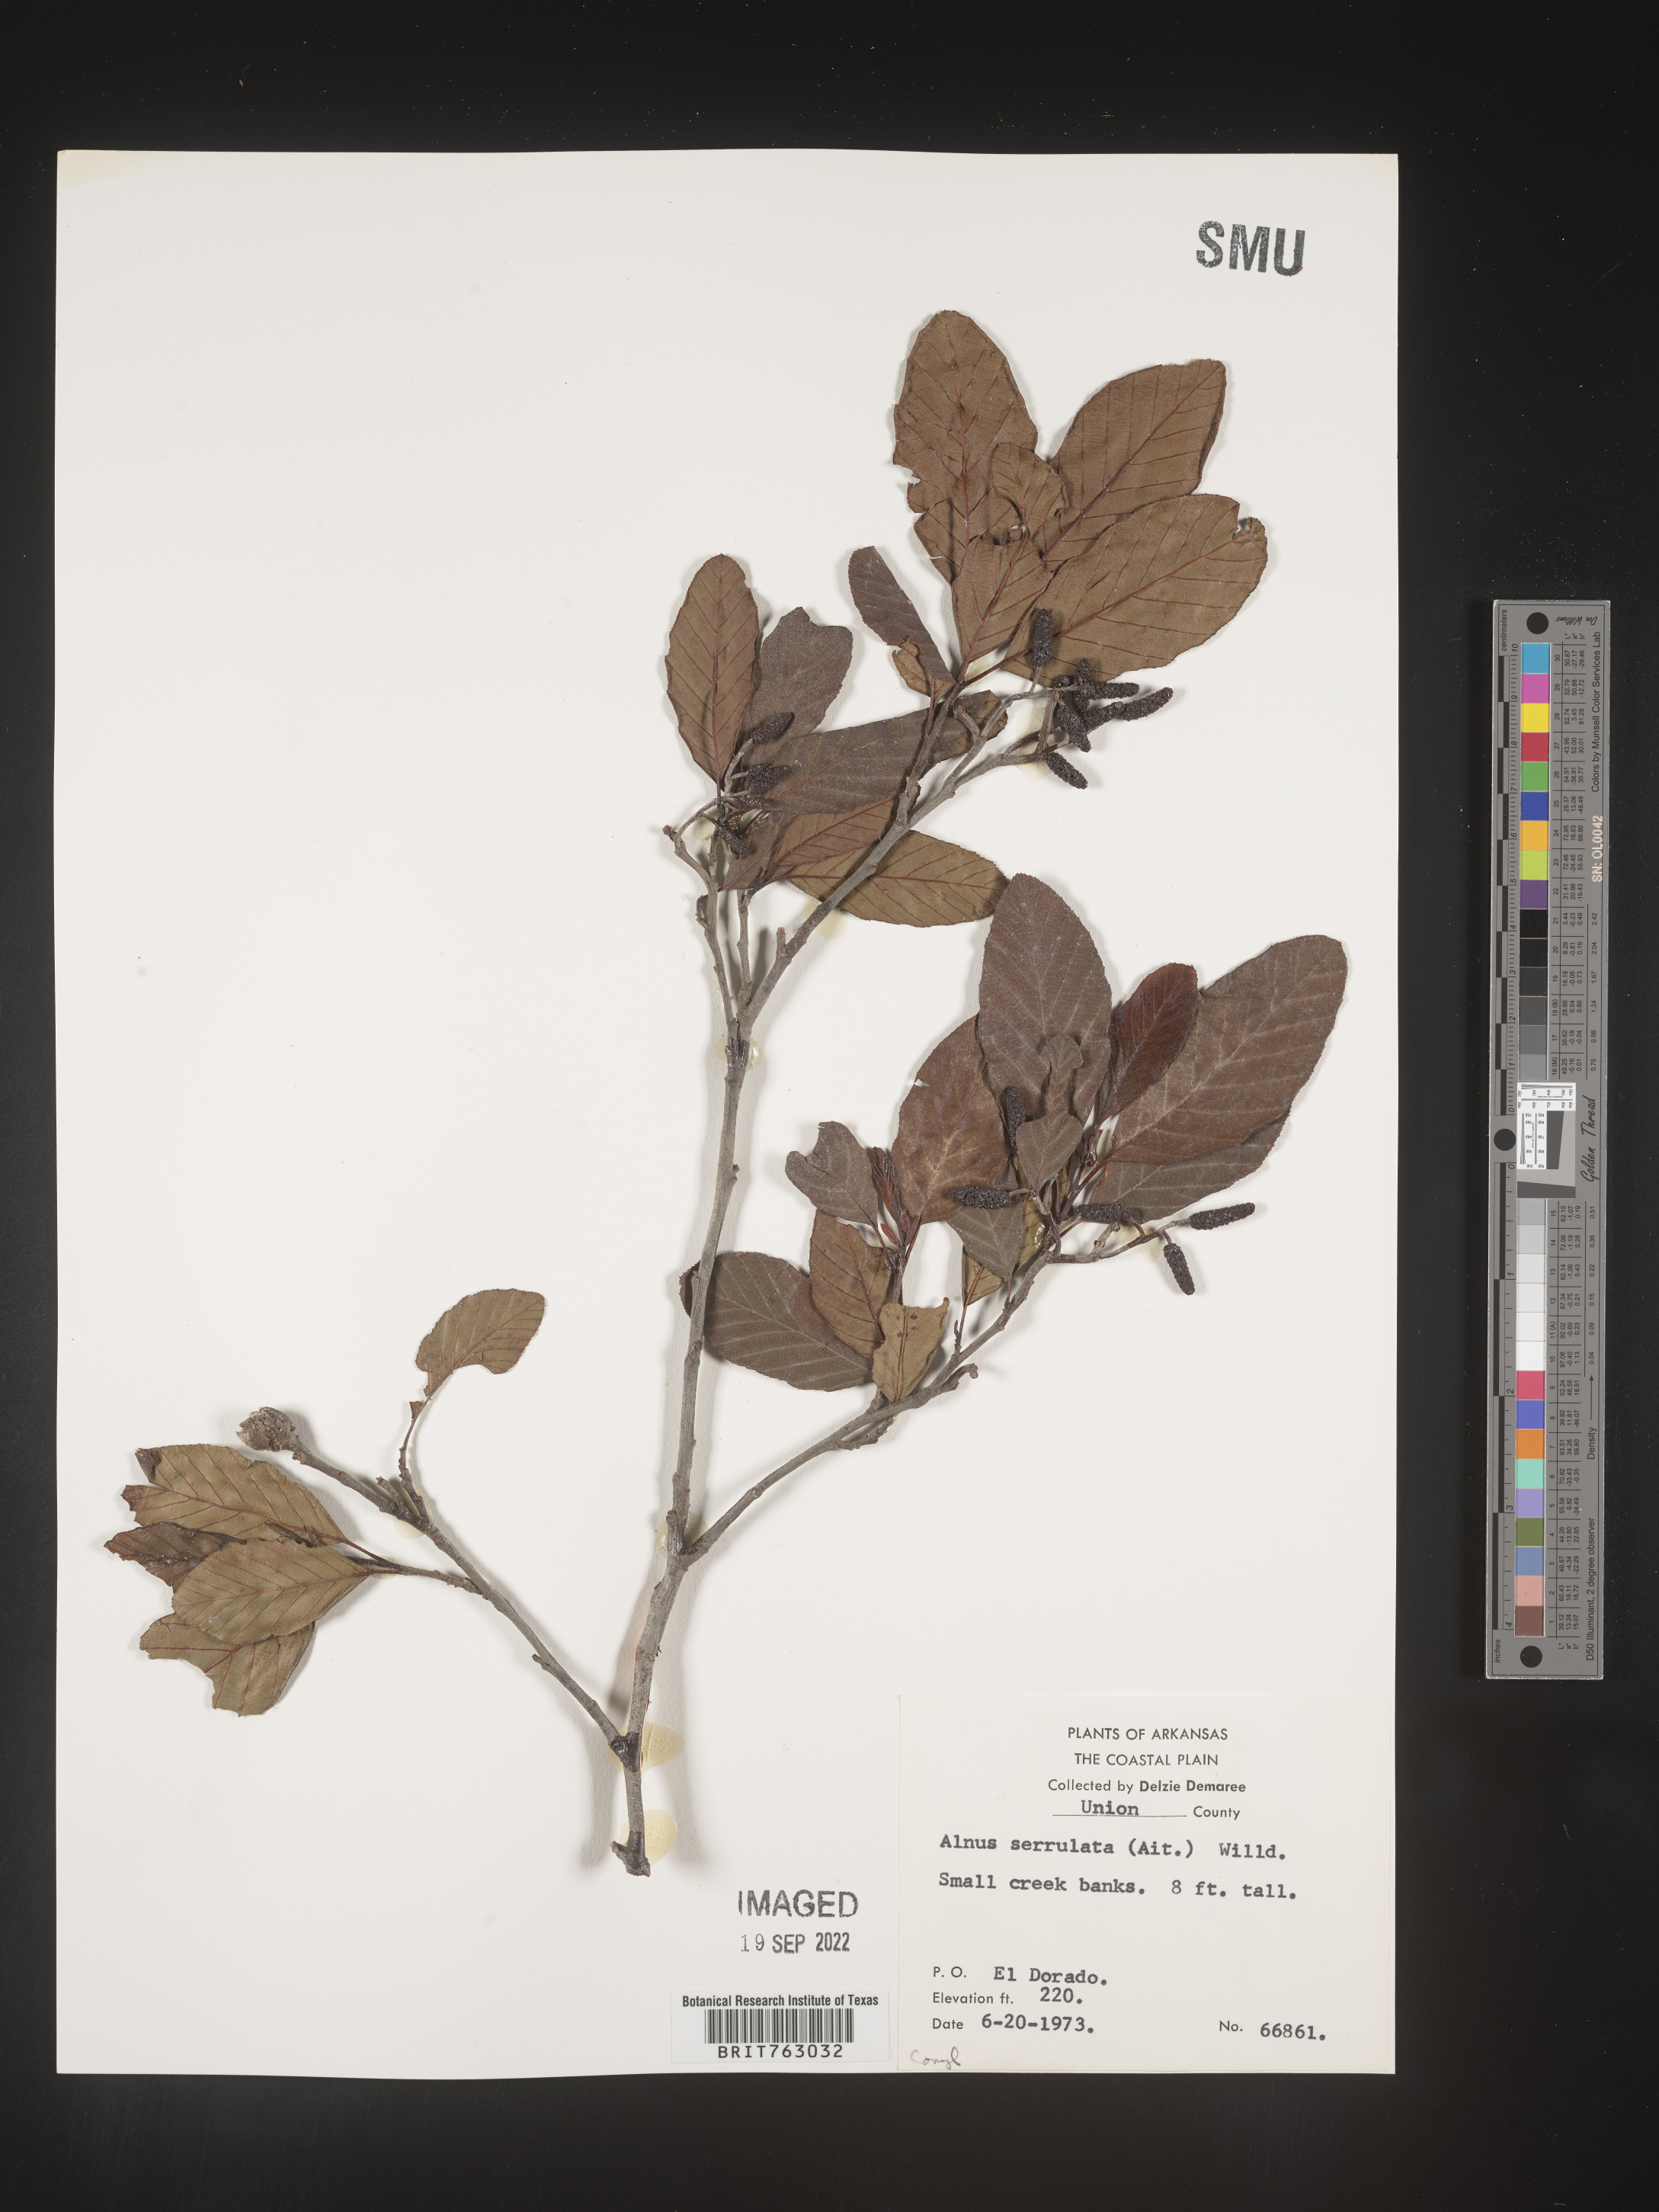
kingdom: Plantae
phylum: Tracheophyta
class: Magnoliopsida
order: Fagales
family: Betulaceae
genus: Alnus
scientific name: Alnus serrulata
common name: Hazel alder
